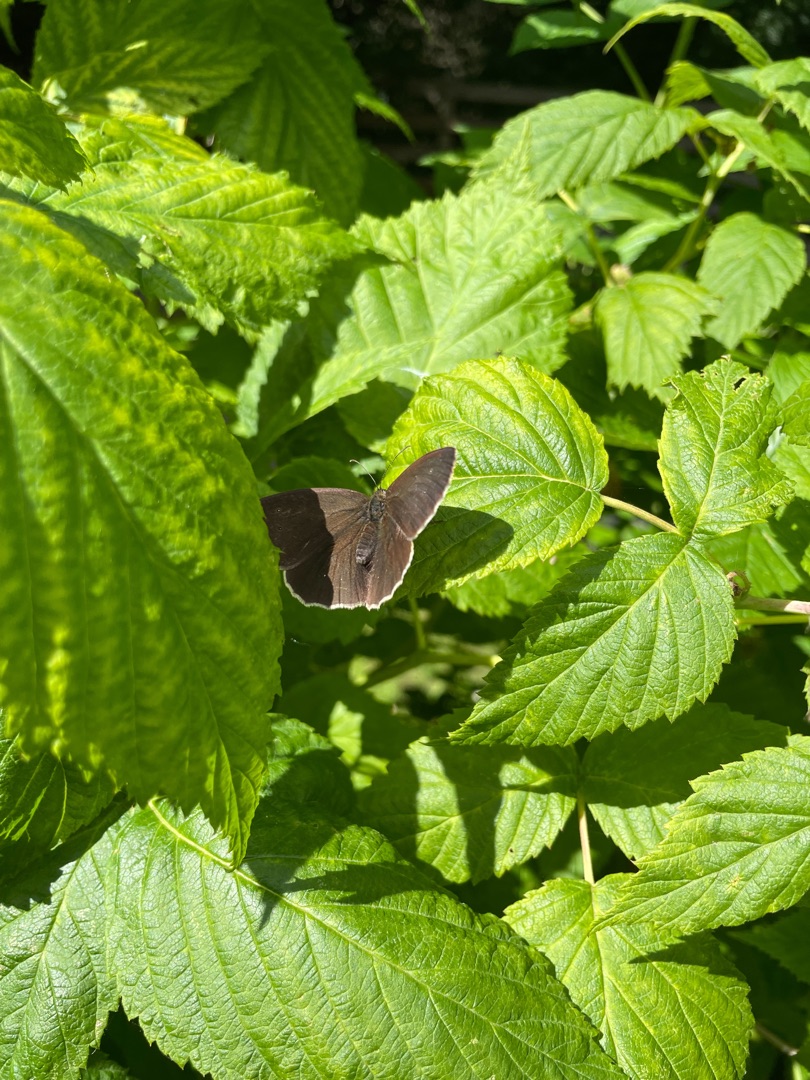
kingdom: Animalia
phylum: Arthropoda
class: Insecta
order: Lepidoptera
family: Nymphalidae
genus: Aphantopus
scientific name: Aphantopus hyperantus
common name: Engrandøje
